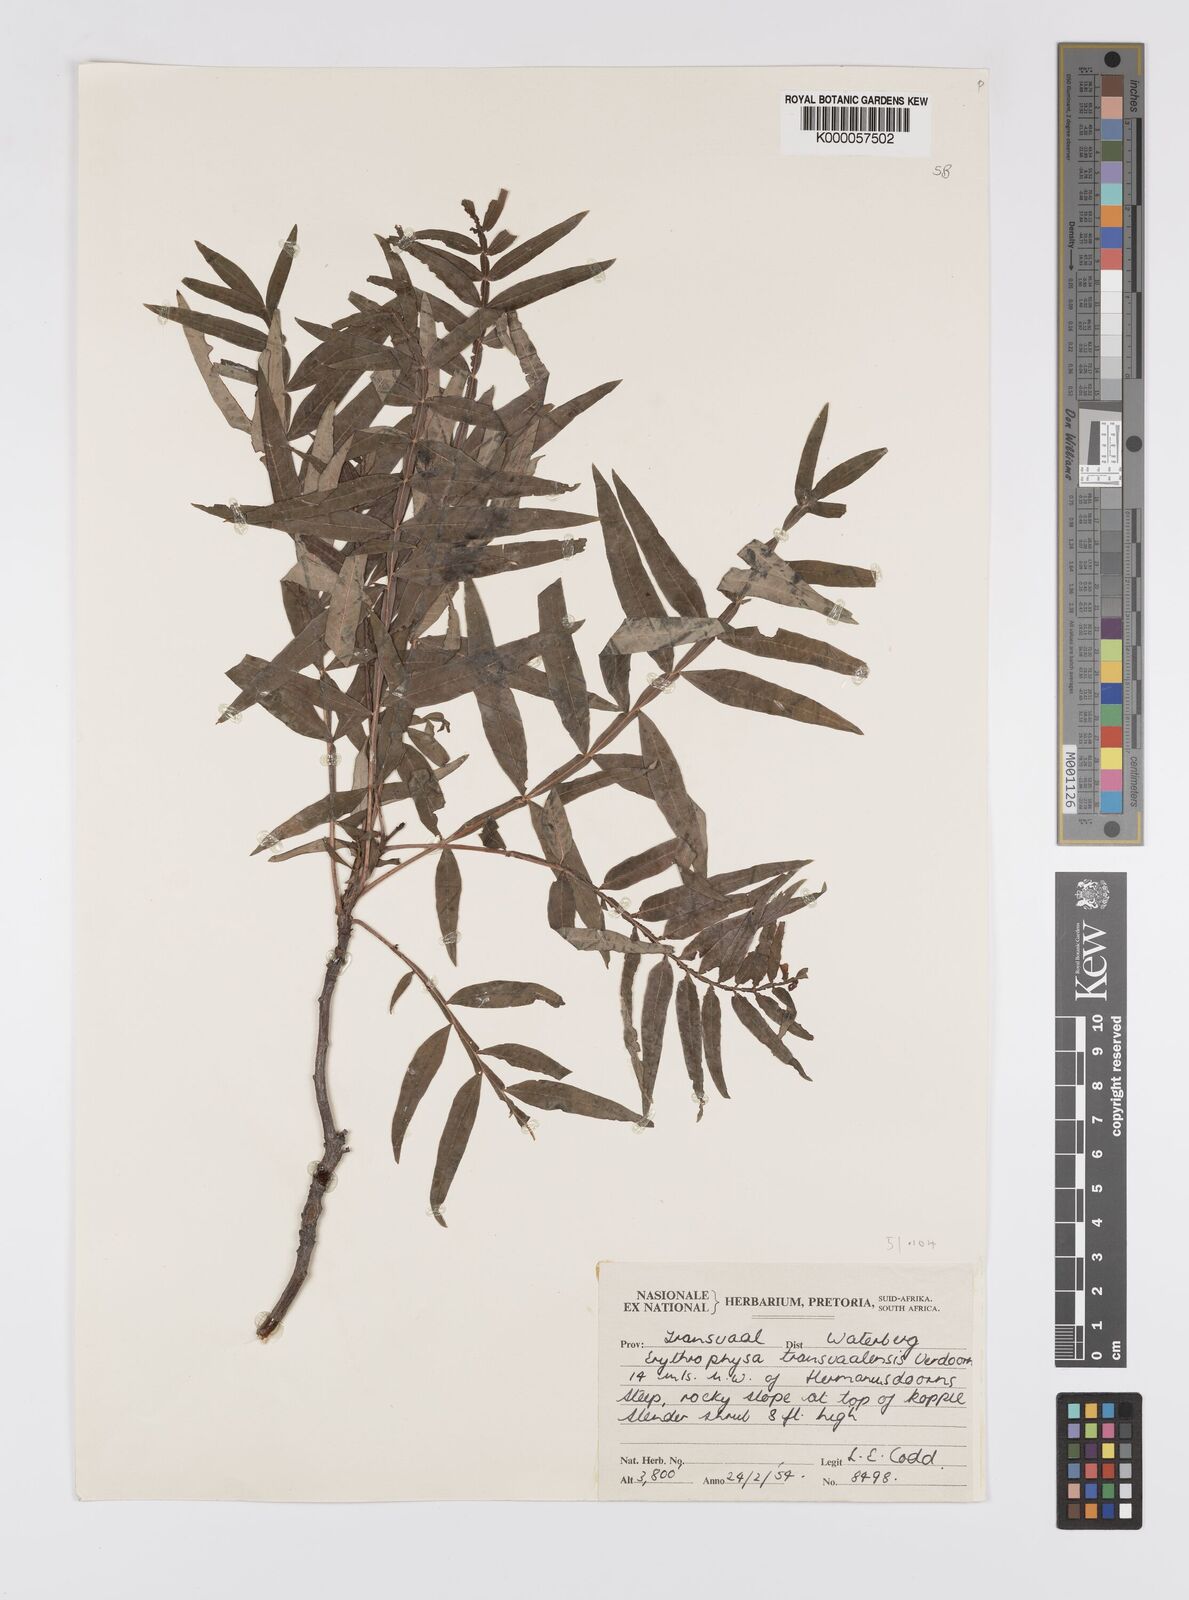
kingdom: Plantae
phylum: Tracheophyta
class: Magnoliopsida
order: Sapindales
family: Sapindaceae
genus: Erythrophysa
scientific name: Erythrophysa transvaalensis
